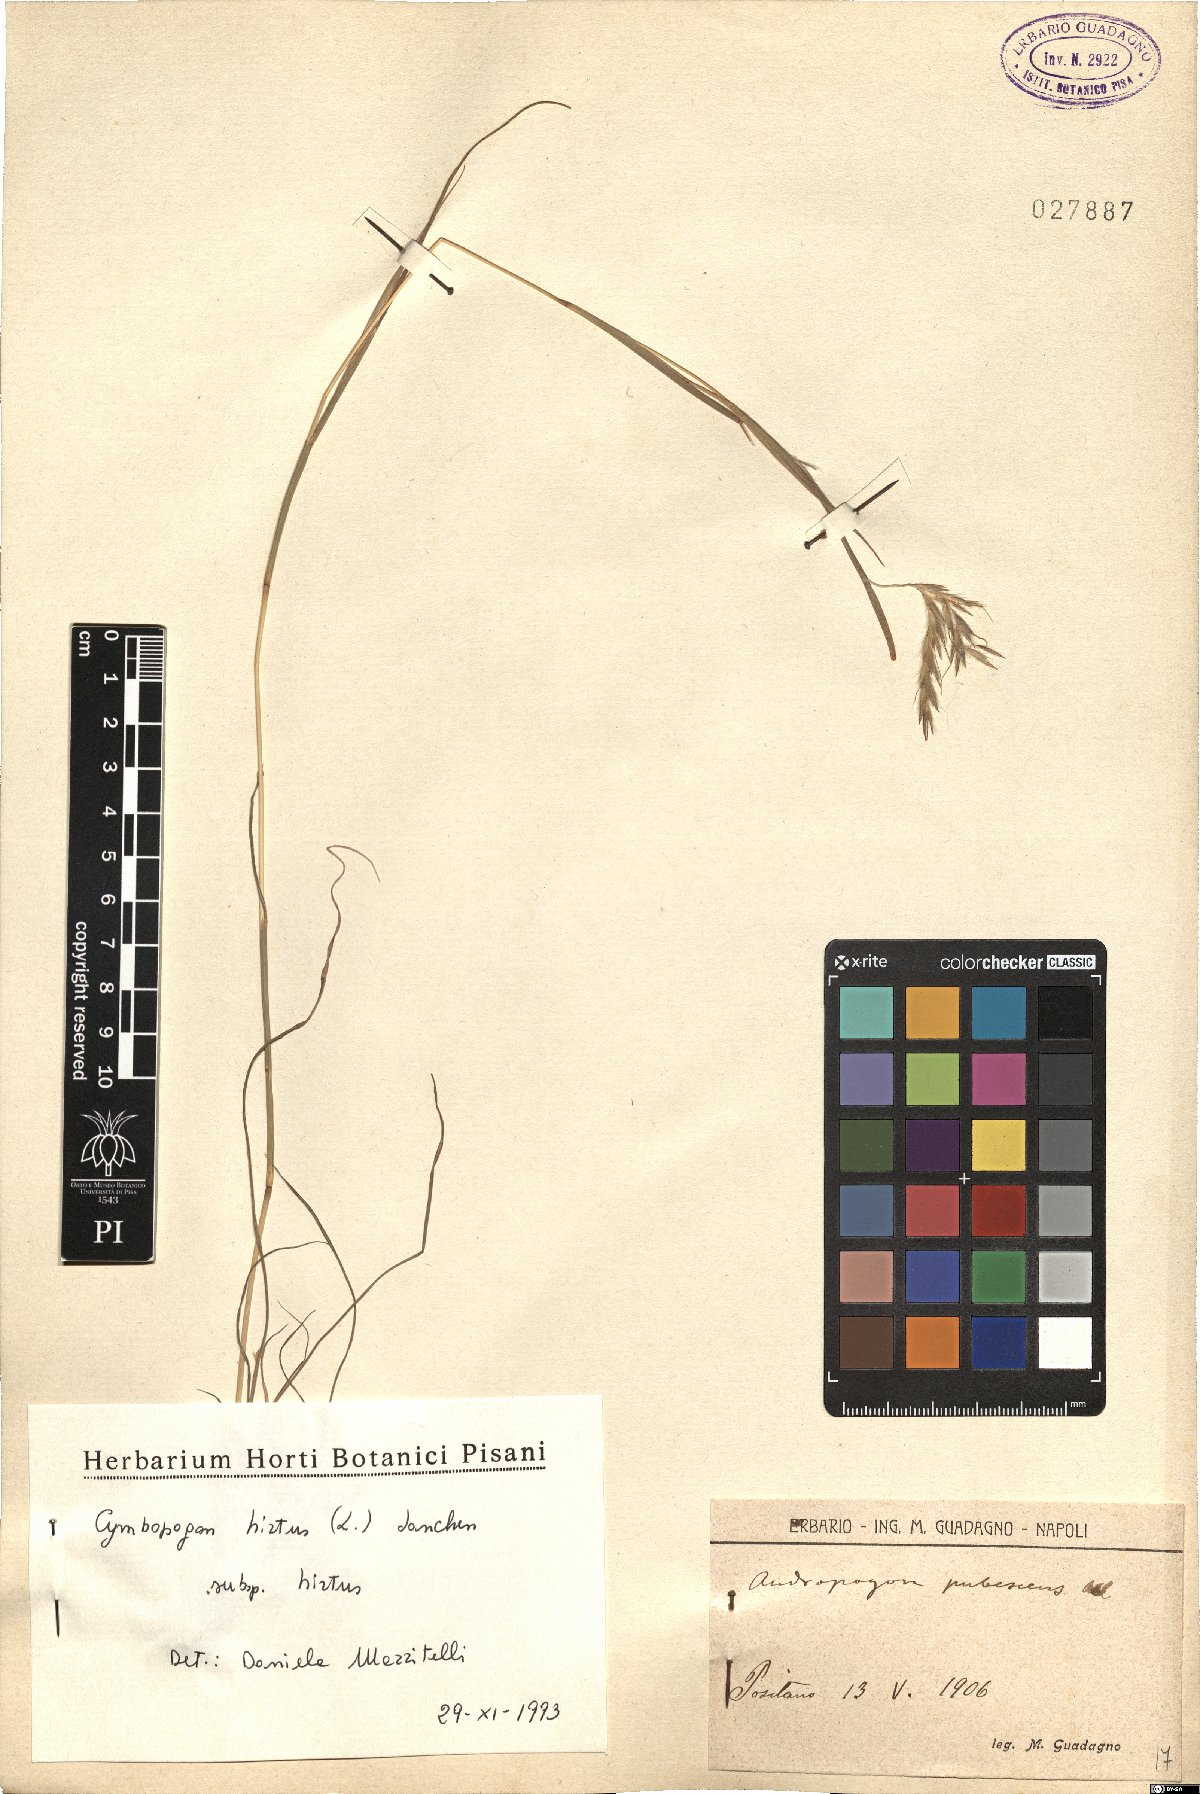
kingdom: Plantae
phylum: Tracheophyta
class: Liliopsida
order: Poales
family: Poaceae
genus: Cymbopogon
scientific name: Cymbopogon hirtus
